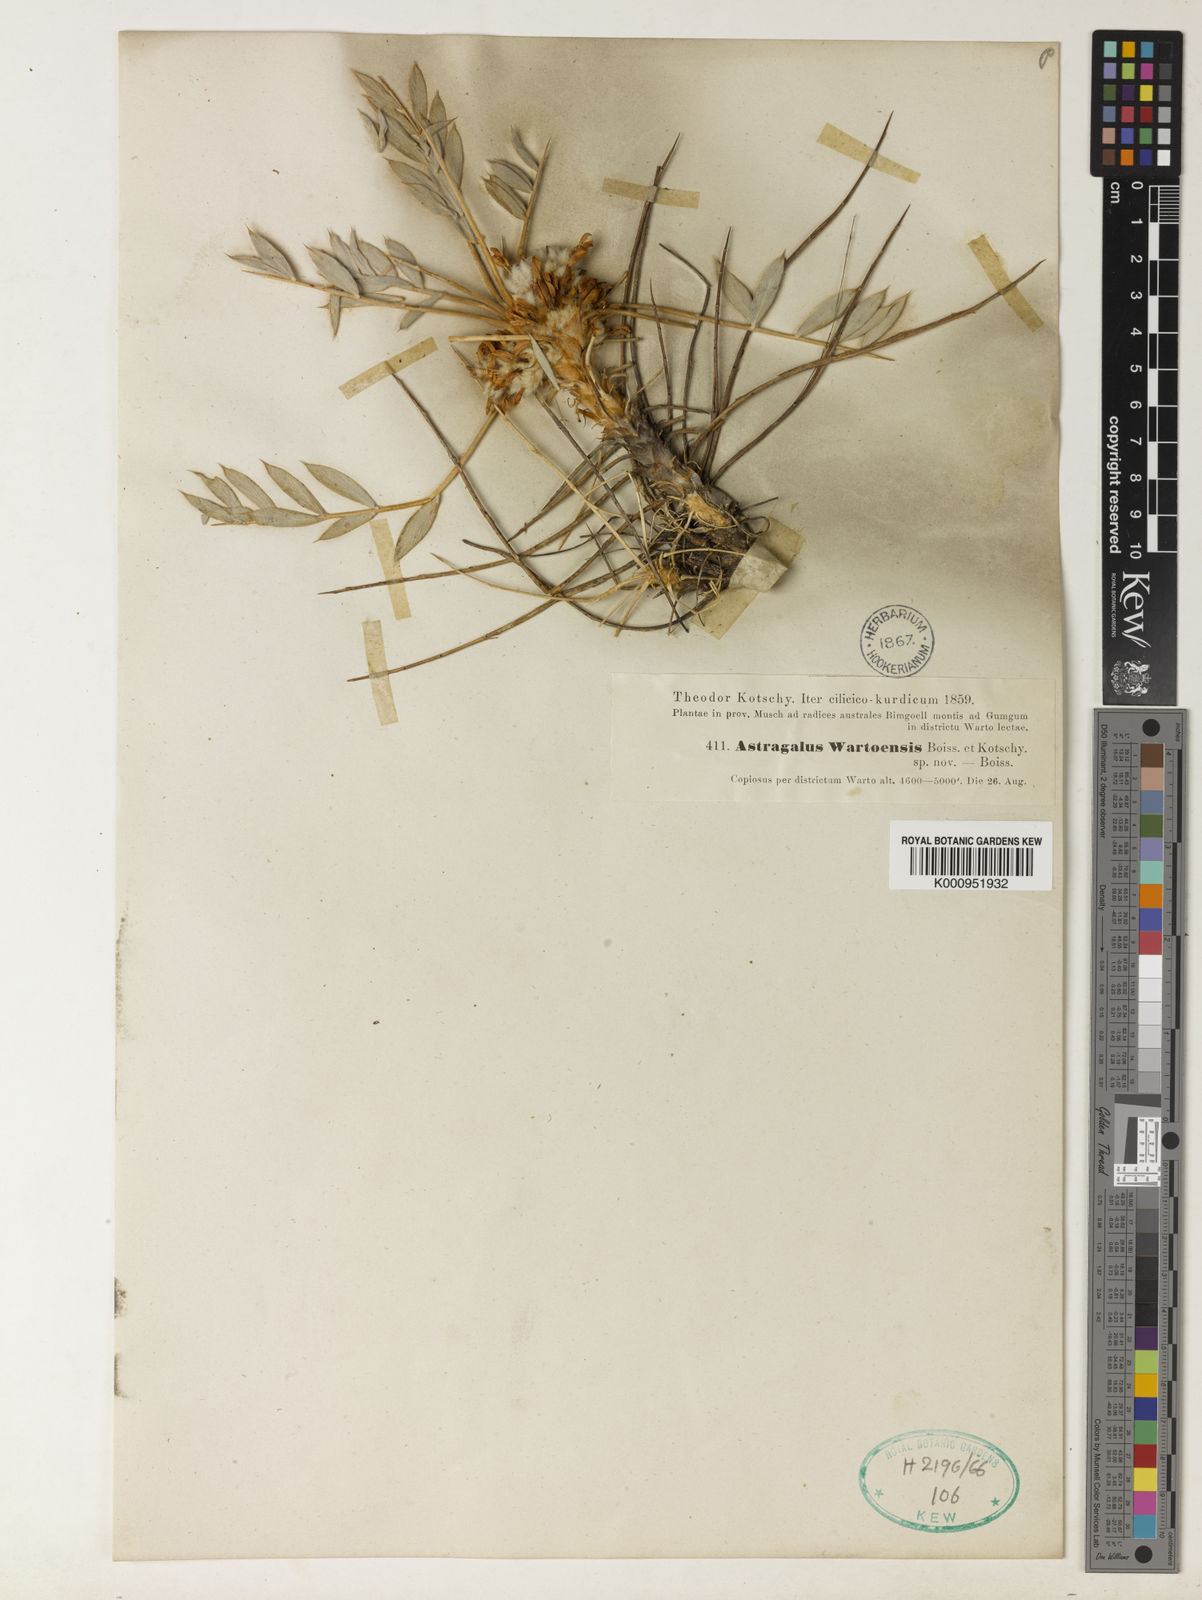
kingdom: Plantae
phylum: Tracheophyta
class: Magnoliopsida
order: Fabales
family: Fabaceae
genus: Astragalus
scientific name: Astragalus
